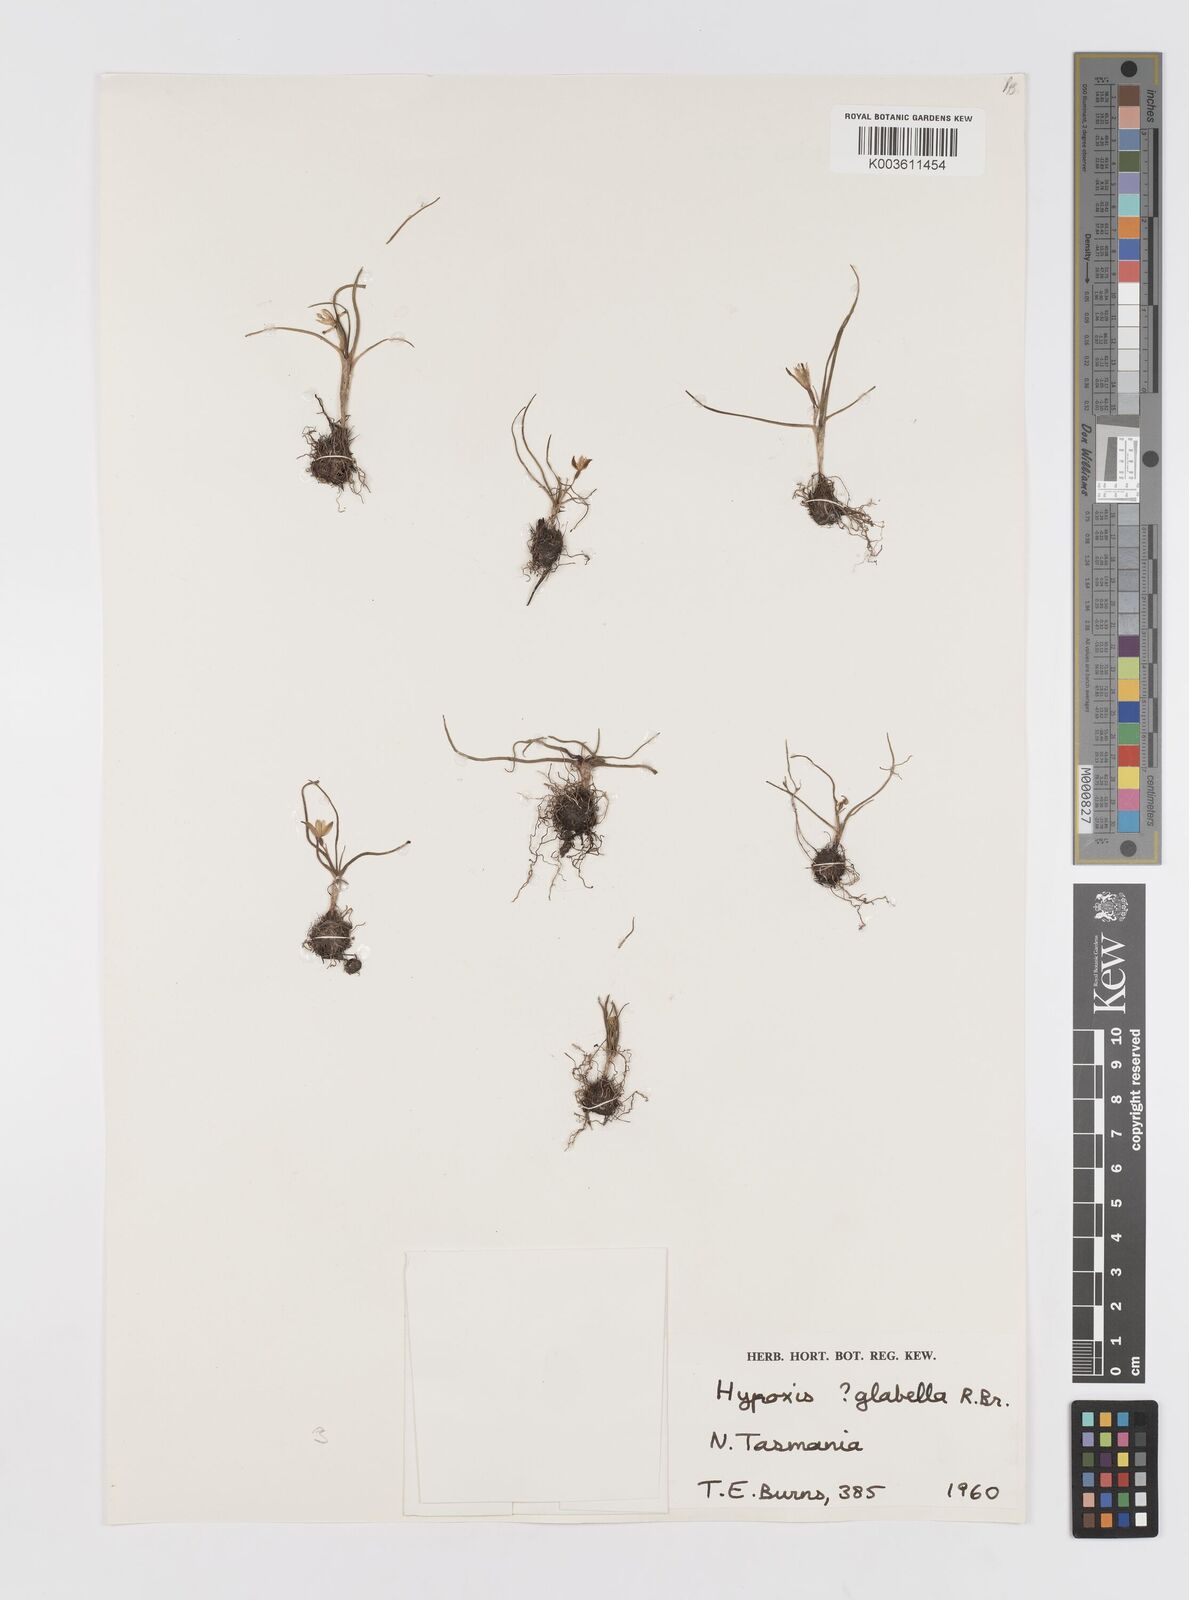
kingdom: Plantae
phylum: Tracheophyta
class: Liliopsida
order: Asparagales
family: Hypoxidaceae
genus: Pauridia
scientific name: Pauridia glabella
